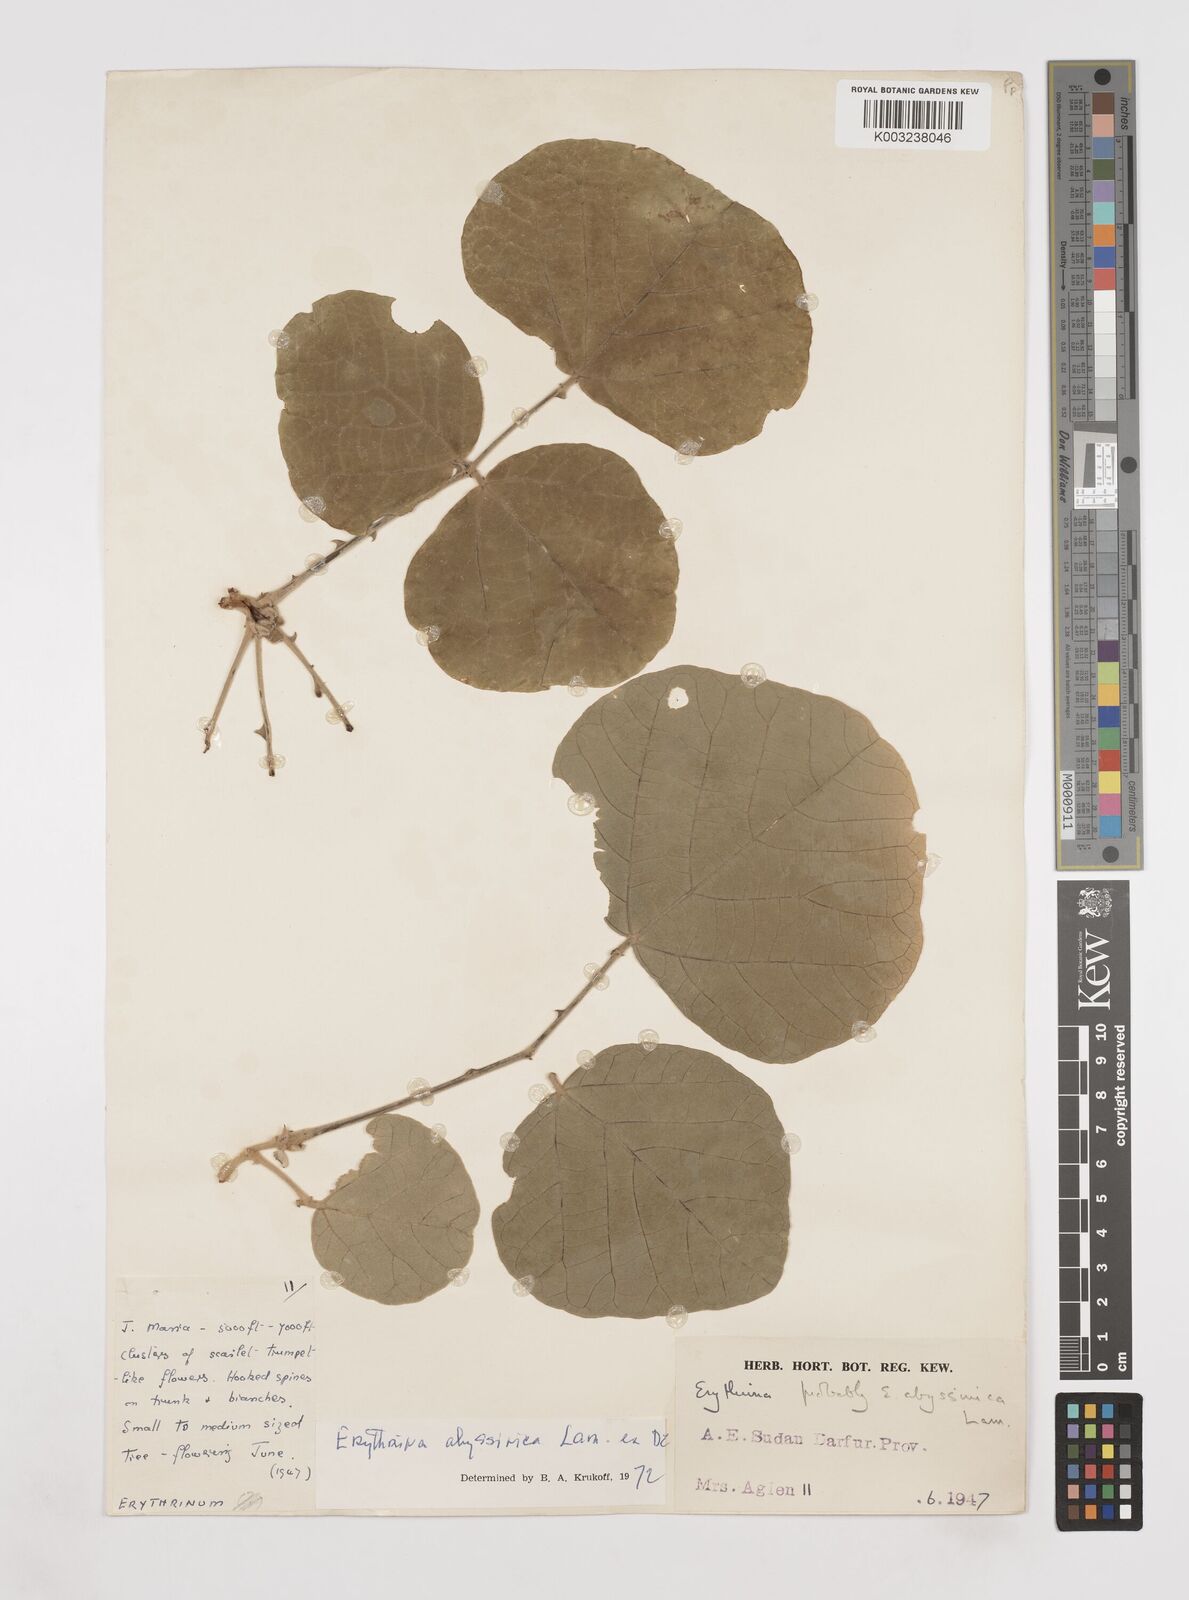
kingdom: Plantae
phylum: Tracheophyta
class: Magnoliopsida
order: Fabales
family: Fabaceae
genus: Erythrina
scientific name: Erythrina abyssinica
